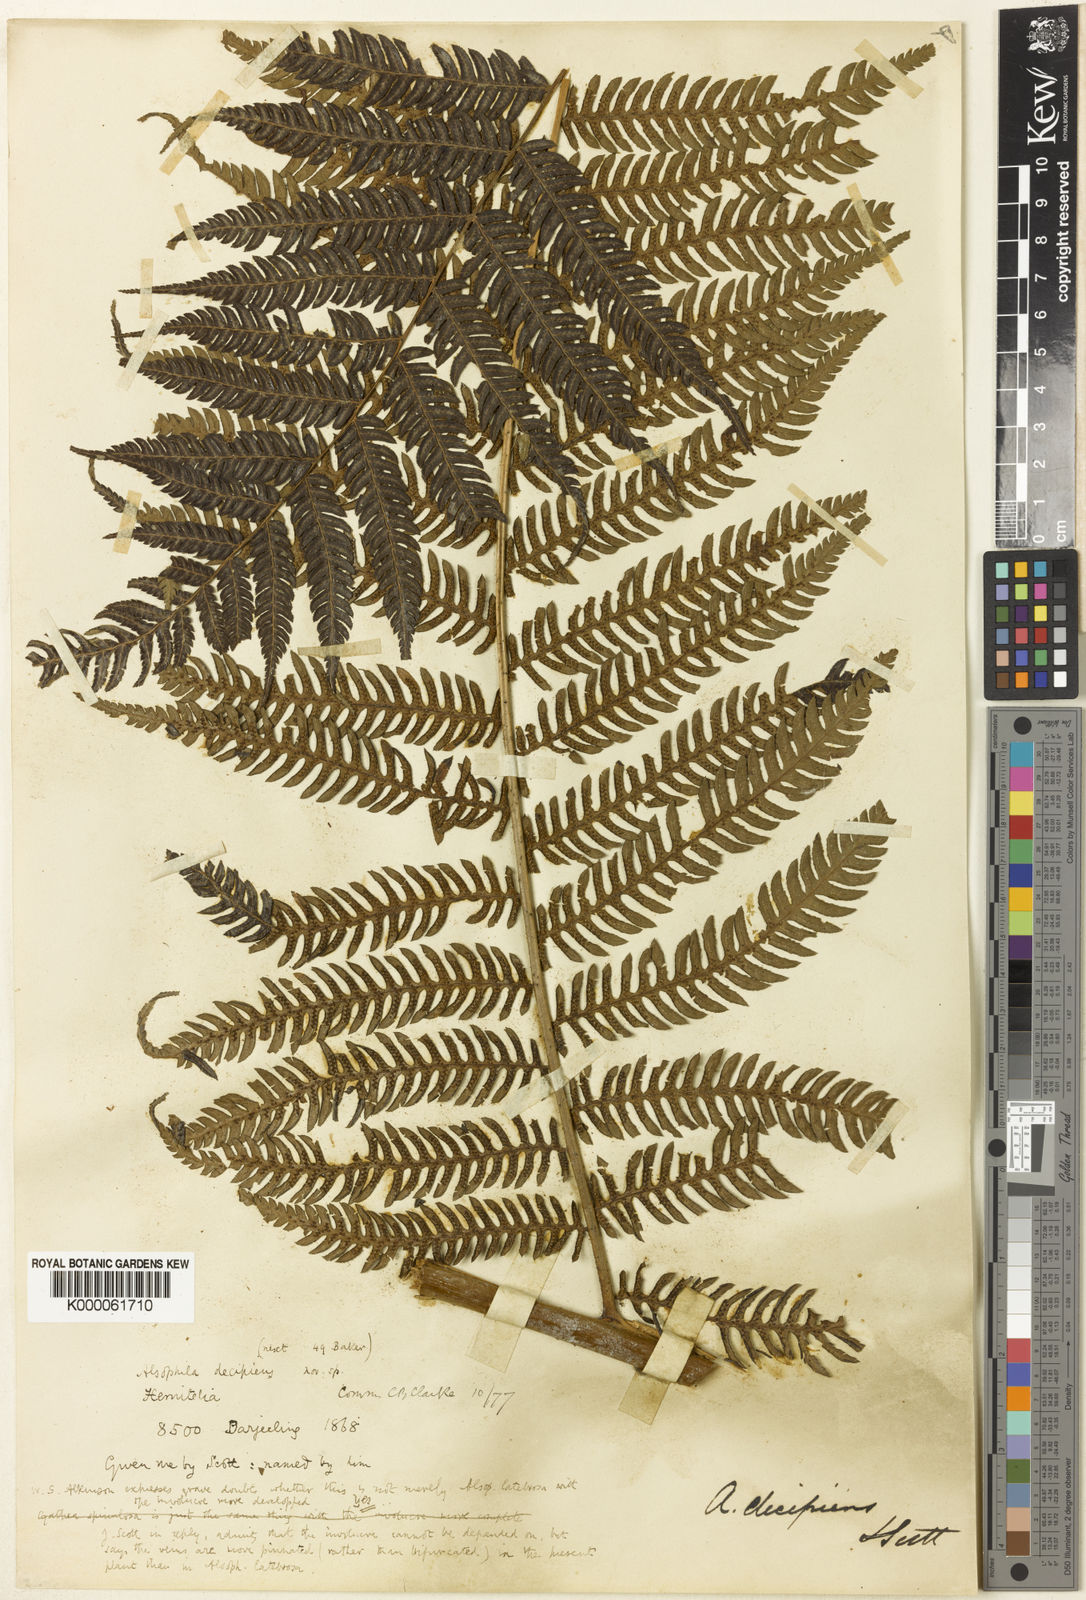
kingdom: Plantae
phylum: Tracheophyta
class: Polypodiopsida
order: Cyatheales
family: Cyatheaceae
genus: Cyathea
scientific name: Cyathea
